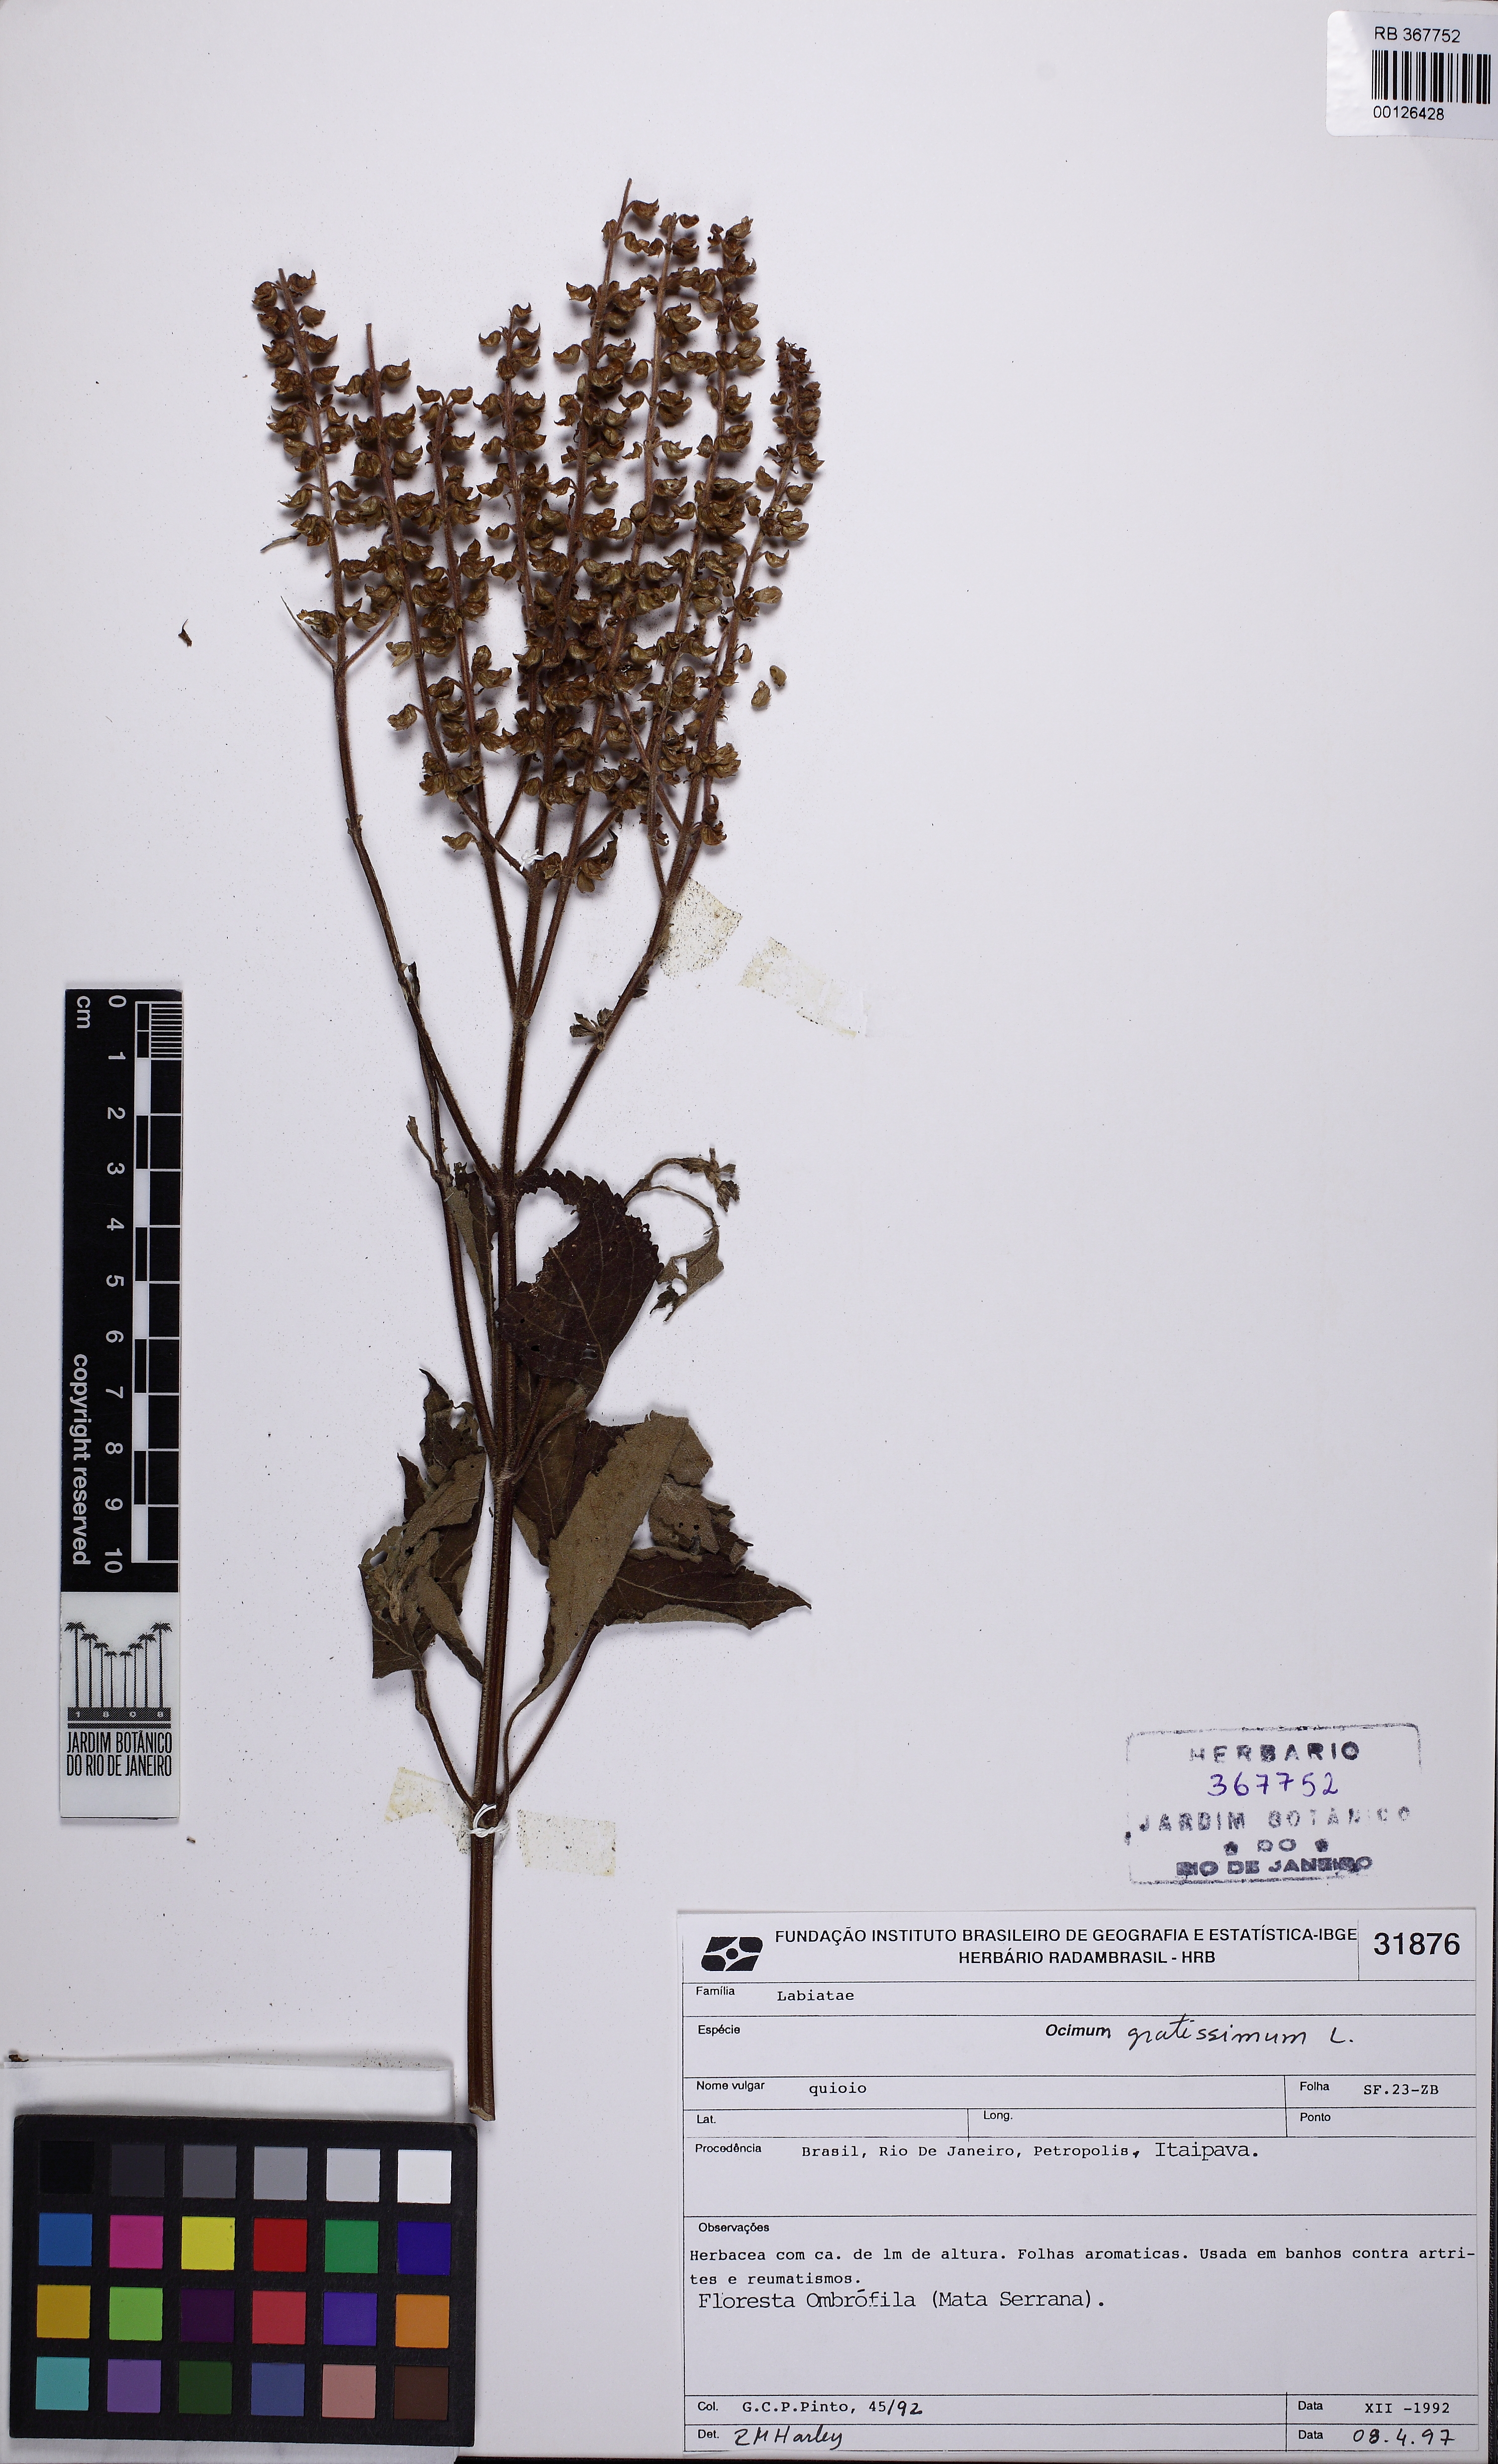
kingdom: Plantae
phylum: Tracheophyta
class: Magnoliopsida
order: Lamiales
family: Lamiaceae
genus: Lamium
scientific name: Lamium
